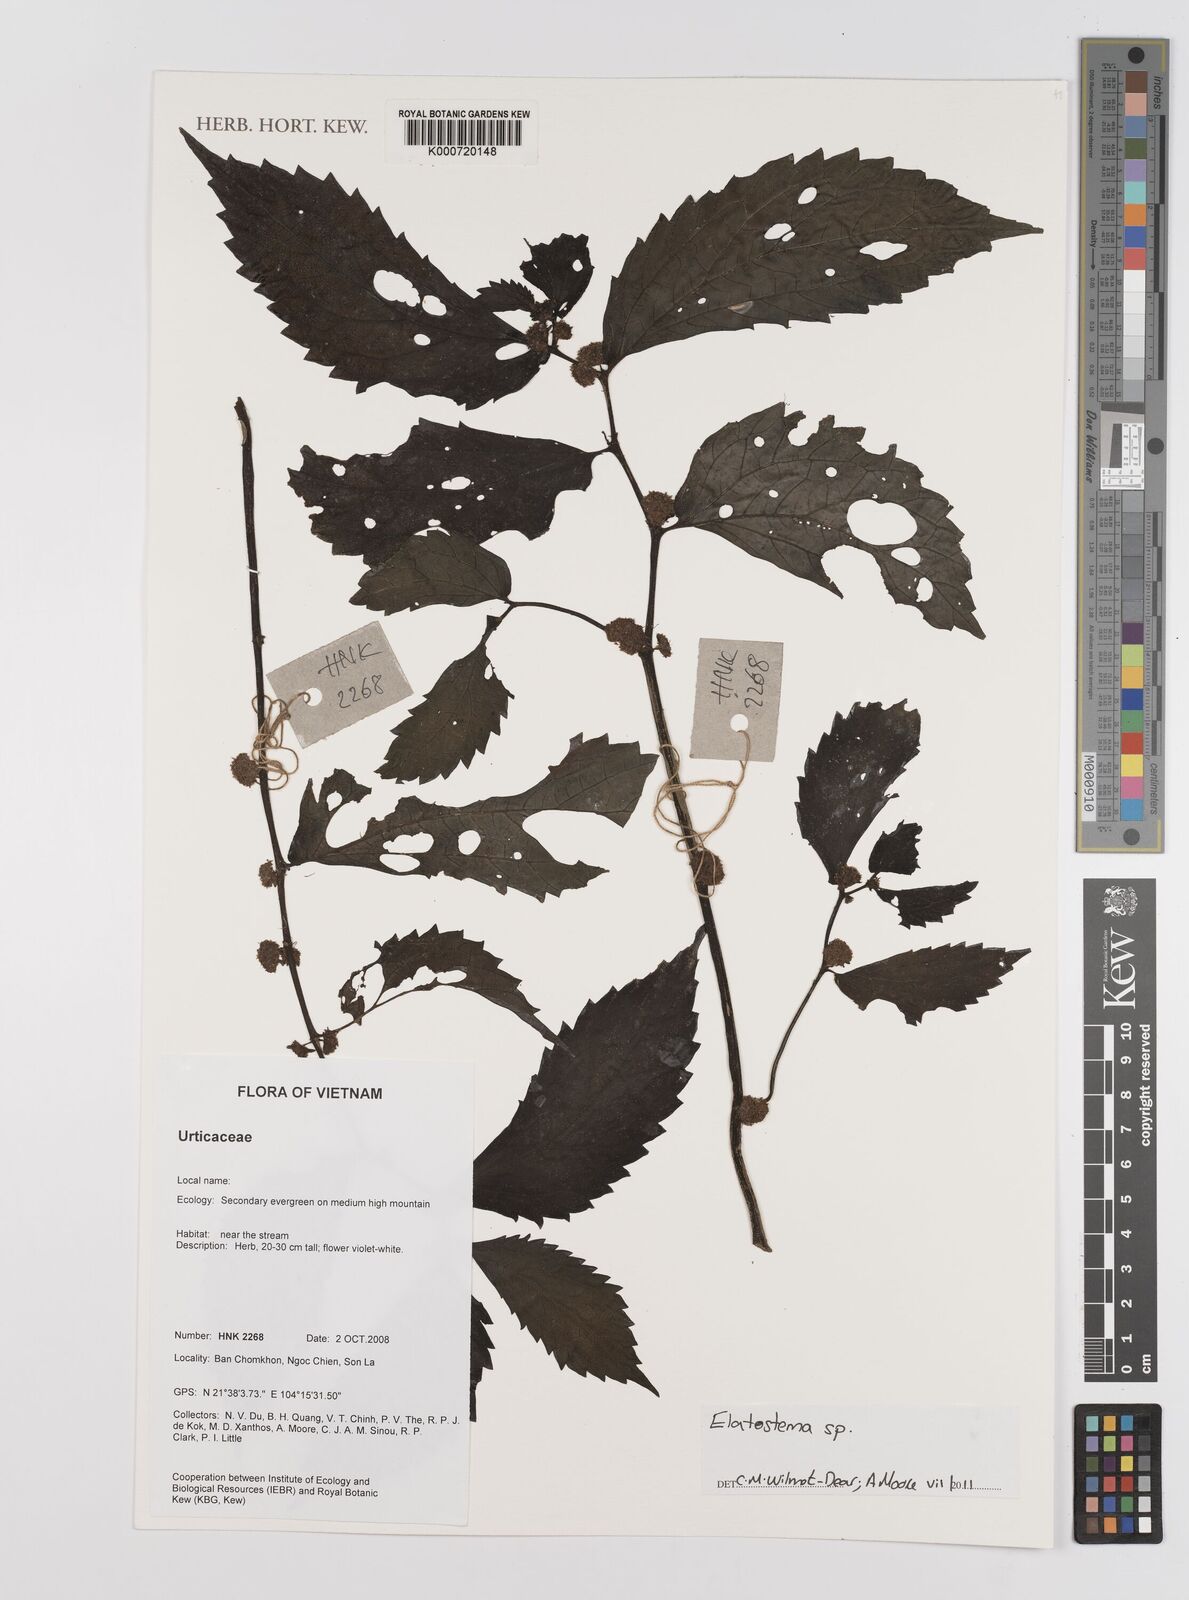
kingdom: Plantae
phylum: Tracheophyta
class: Magnoliopsida
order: Rosales
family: Urticaceae
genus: Elatostema
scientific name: Elatostema
